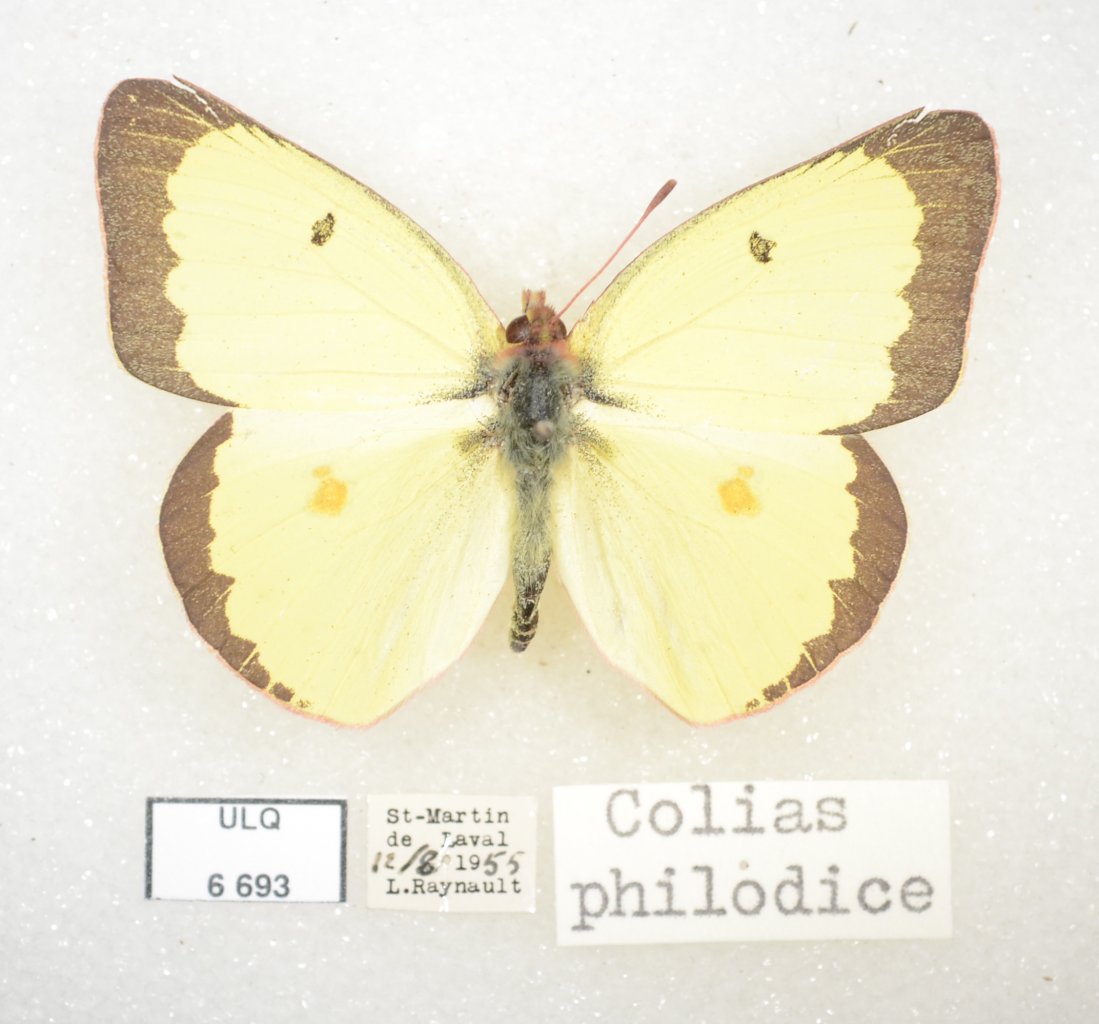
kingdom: Animalia
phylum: Arthropoda
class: Insecta
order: Lepidoptera
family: Pieridae
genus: Colias
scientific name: Colias philodice
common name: Clouded Sulphur
